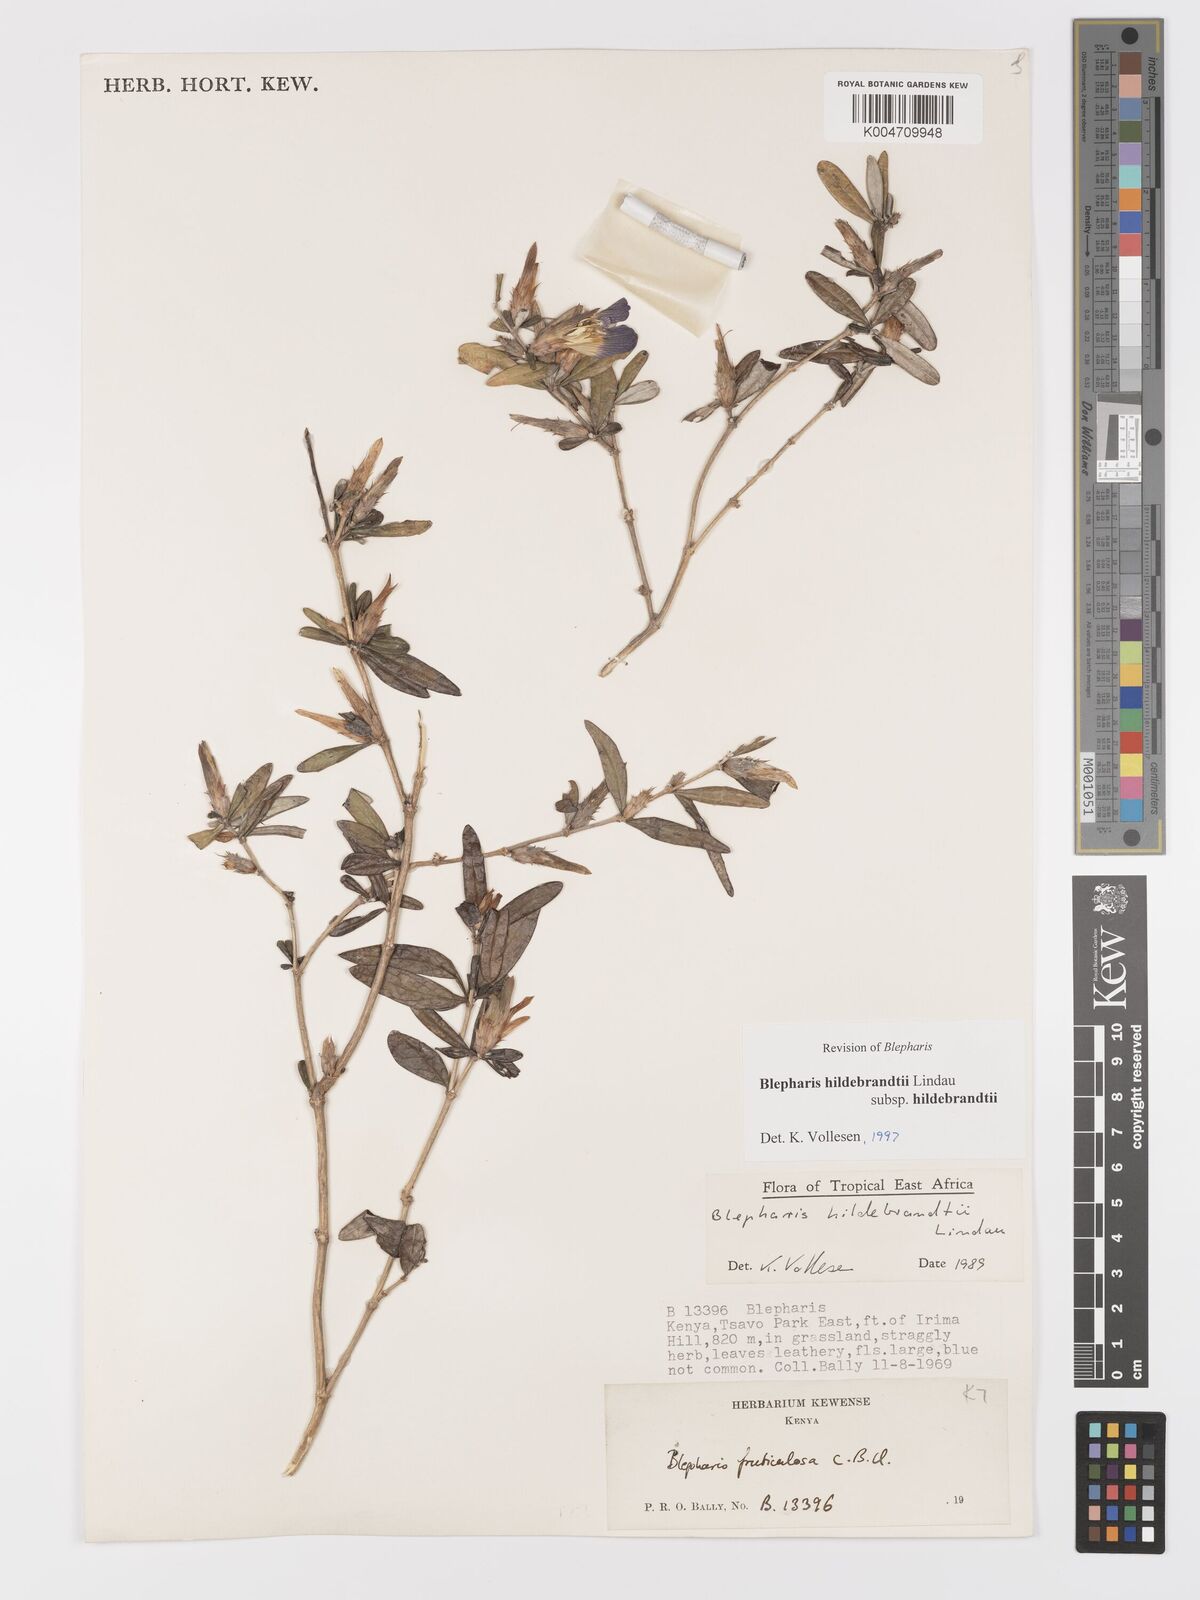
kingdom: Plantae
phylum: Tracheophyta
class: Magnoliopsida
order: Lamiales
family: Acanthaceae
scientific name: Acanthaceae
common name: Acanthaceae
